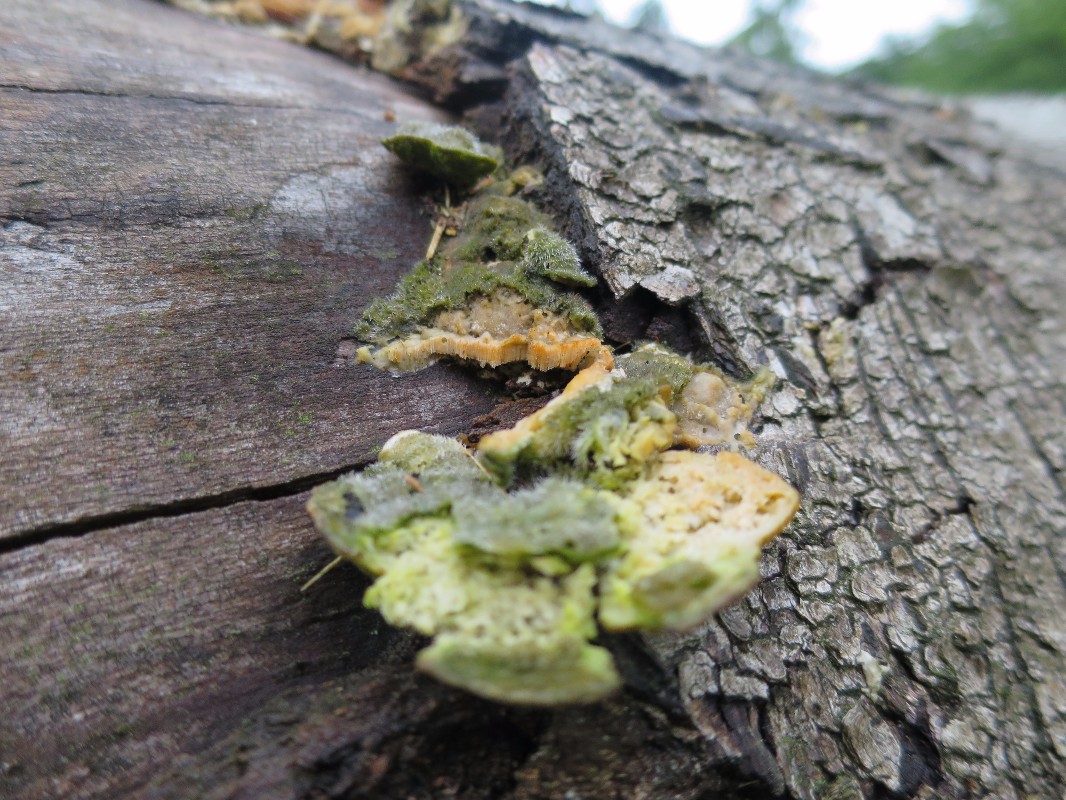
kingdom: Fungi
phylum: Basidiomycota
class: Agaricomycetes
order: Polyporales
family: Polyporaceae
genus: Trametes
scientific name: Trametes hirsuta
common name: håret læderporesvamp
